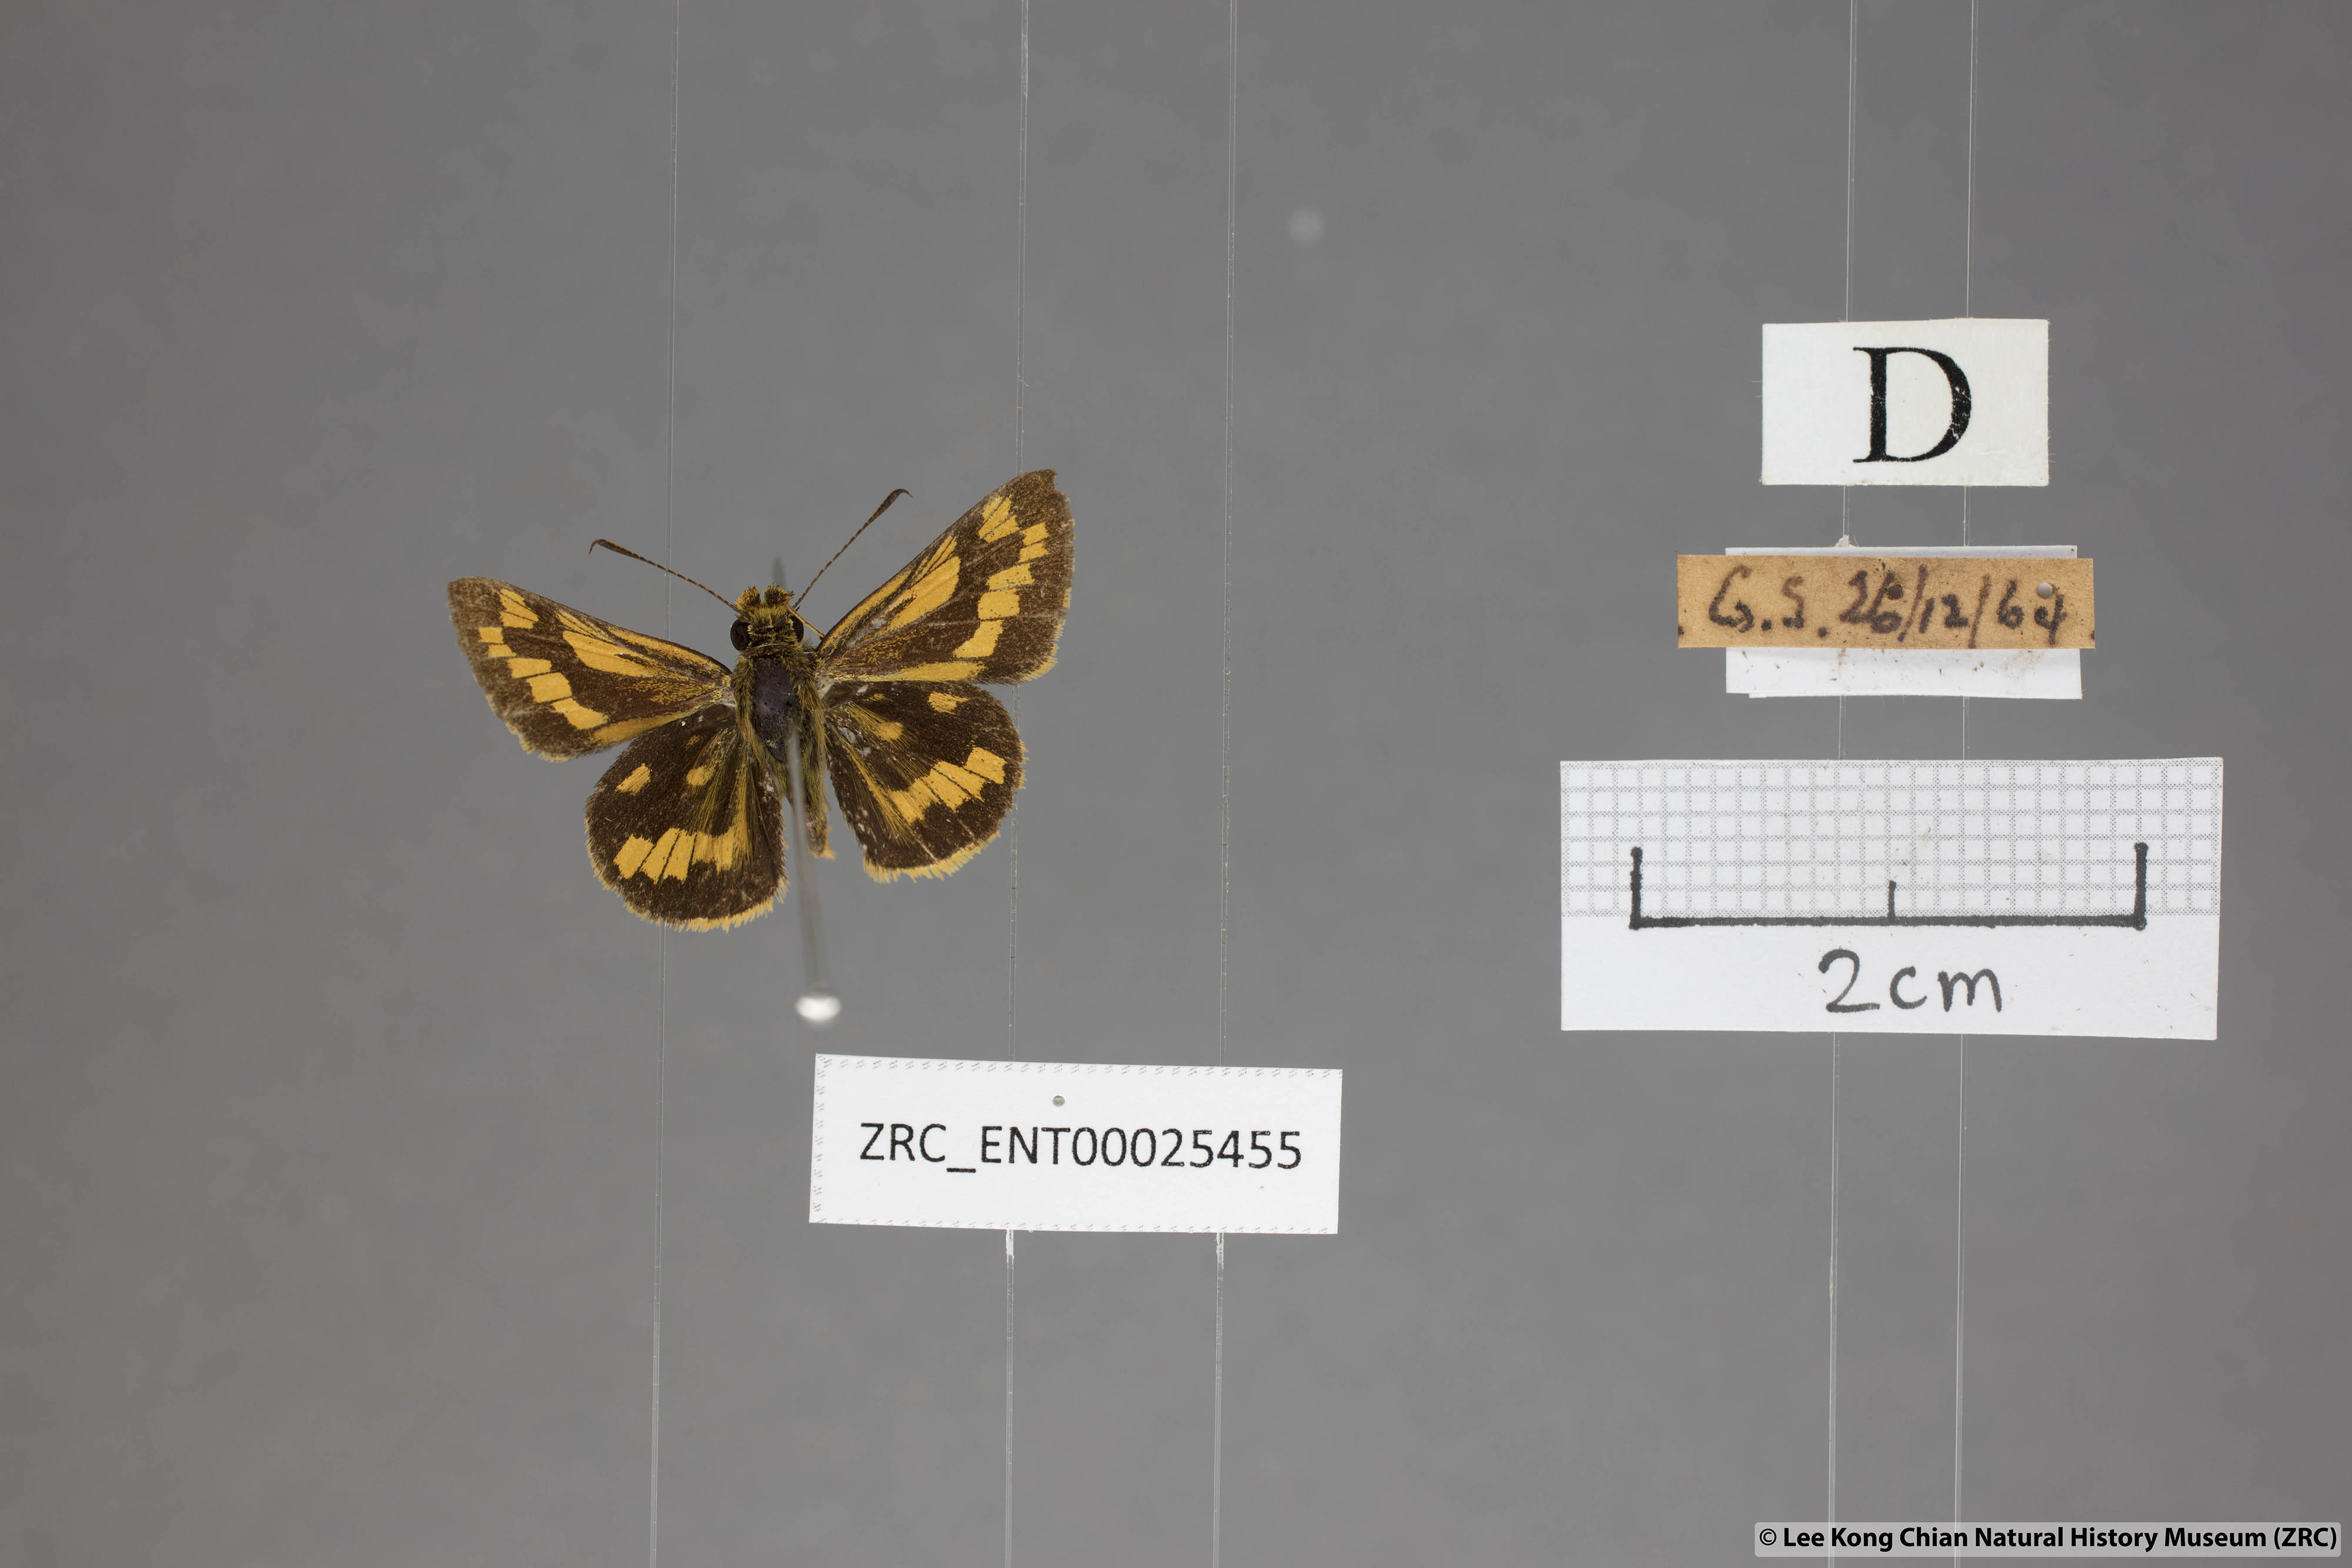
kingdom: Animalia
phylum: Arthropoda
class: Insecta
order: Lepidoptera
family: Hesperiidae
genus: Potanthus
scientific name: Potanthus omaha
